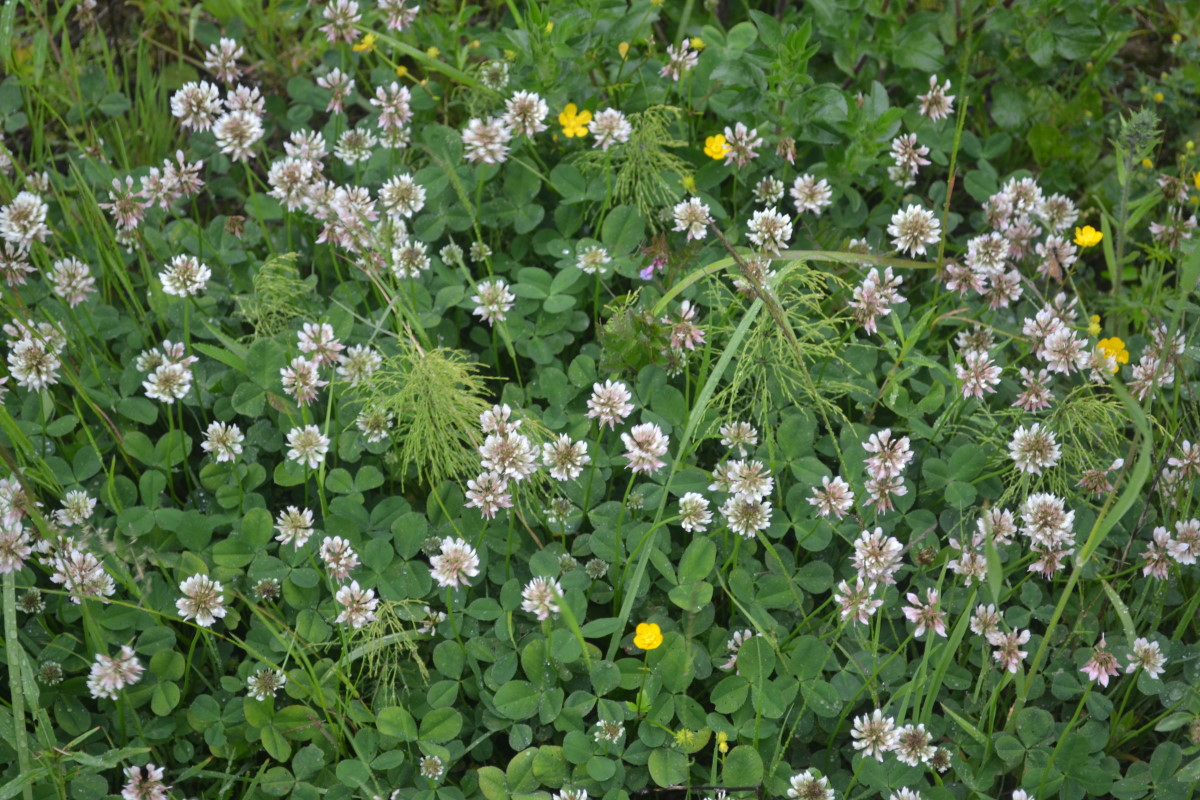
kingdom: Plantae
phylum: Tracheophyta
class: Magnoliopsida
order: Fabales
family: Fabaceae
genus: Trifolium
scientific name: Trifolium repens
